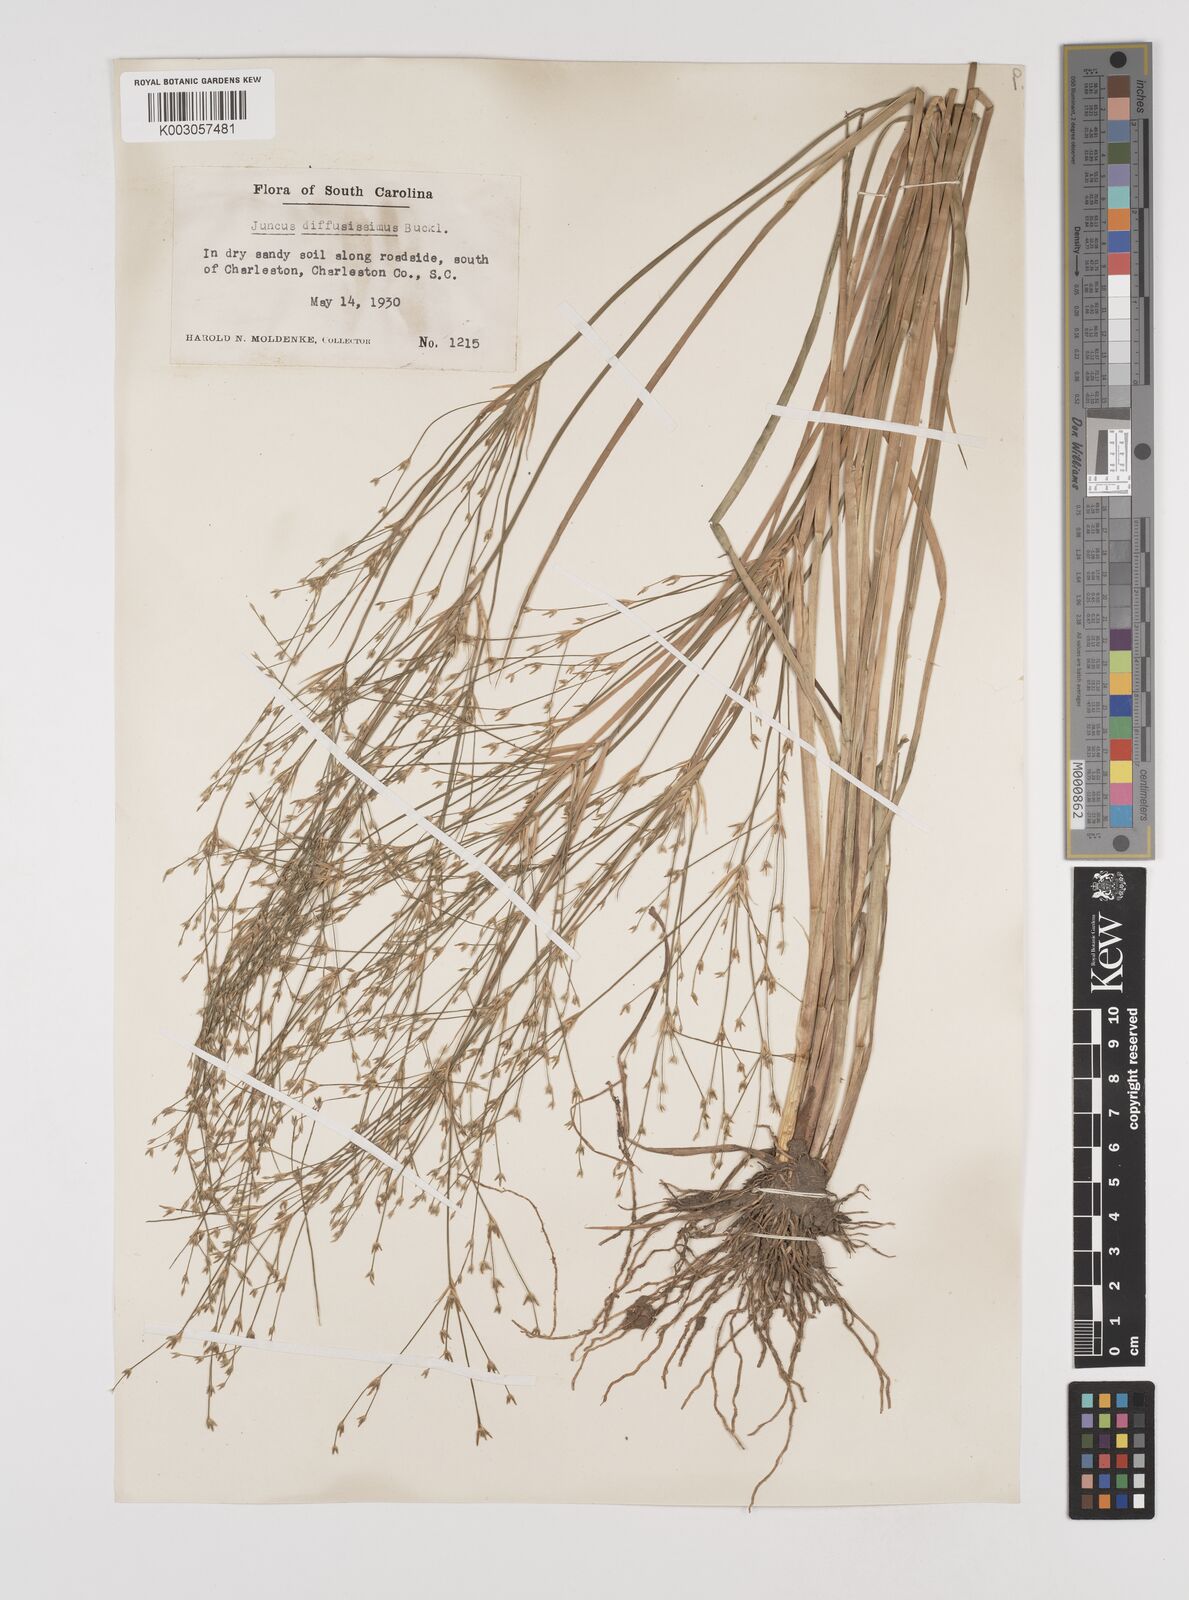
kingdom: Plantae
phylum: Tracheophyta
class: Liliopsida
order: Poales
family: Juncaceae
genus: Juncus
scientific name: Juncus diffusissimus
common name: Slimpod rush
